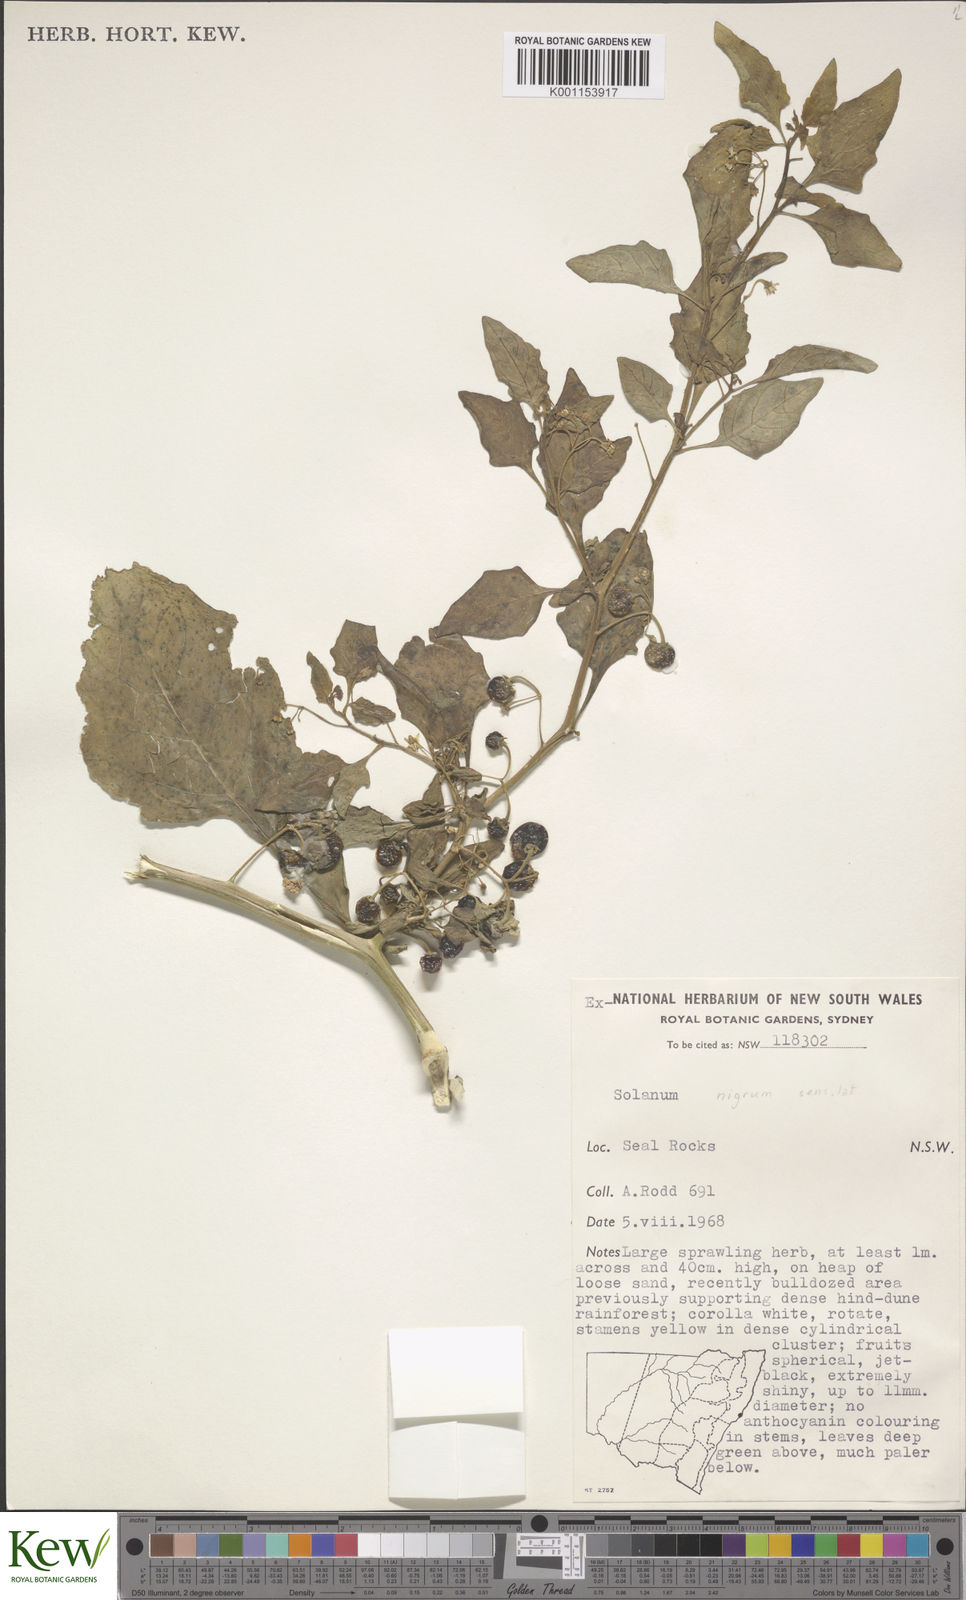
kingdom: Plantae
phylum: Tracheophyta
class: Magnoliopsida
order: Solanales
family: Solanaceae
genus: Solanum
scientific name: Solanum nigrum
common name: Black nightshade
